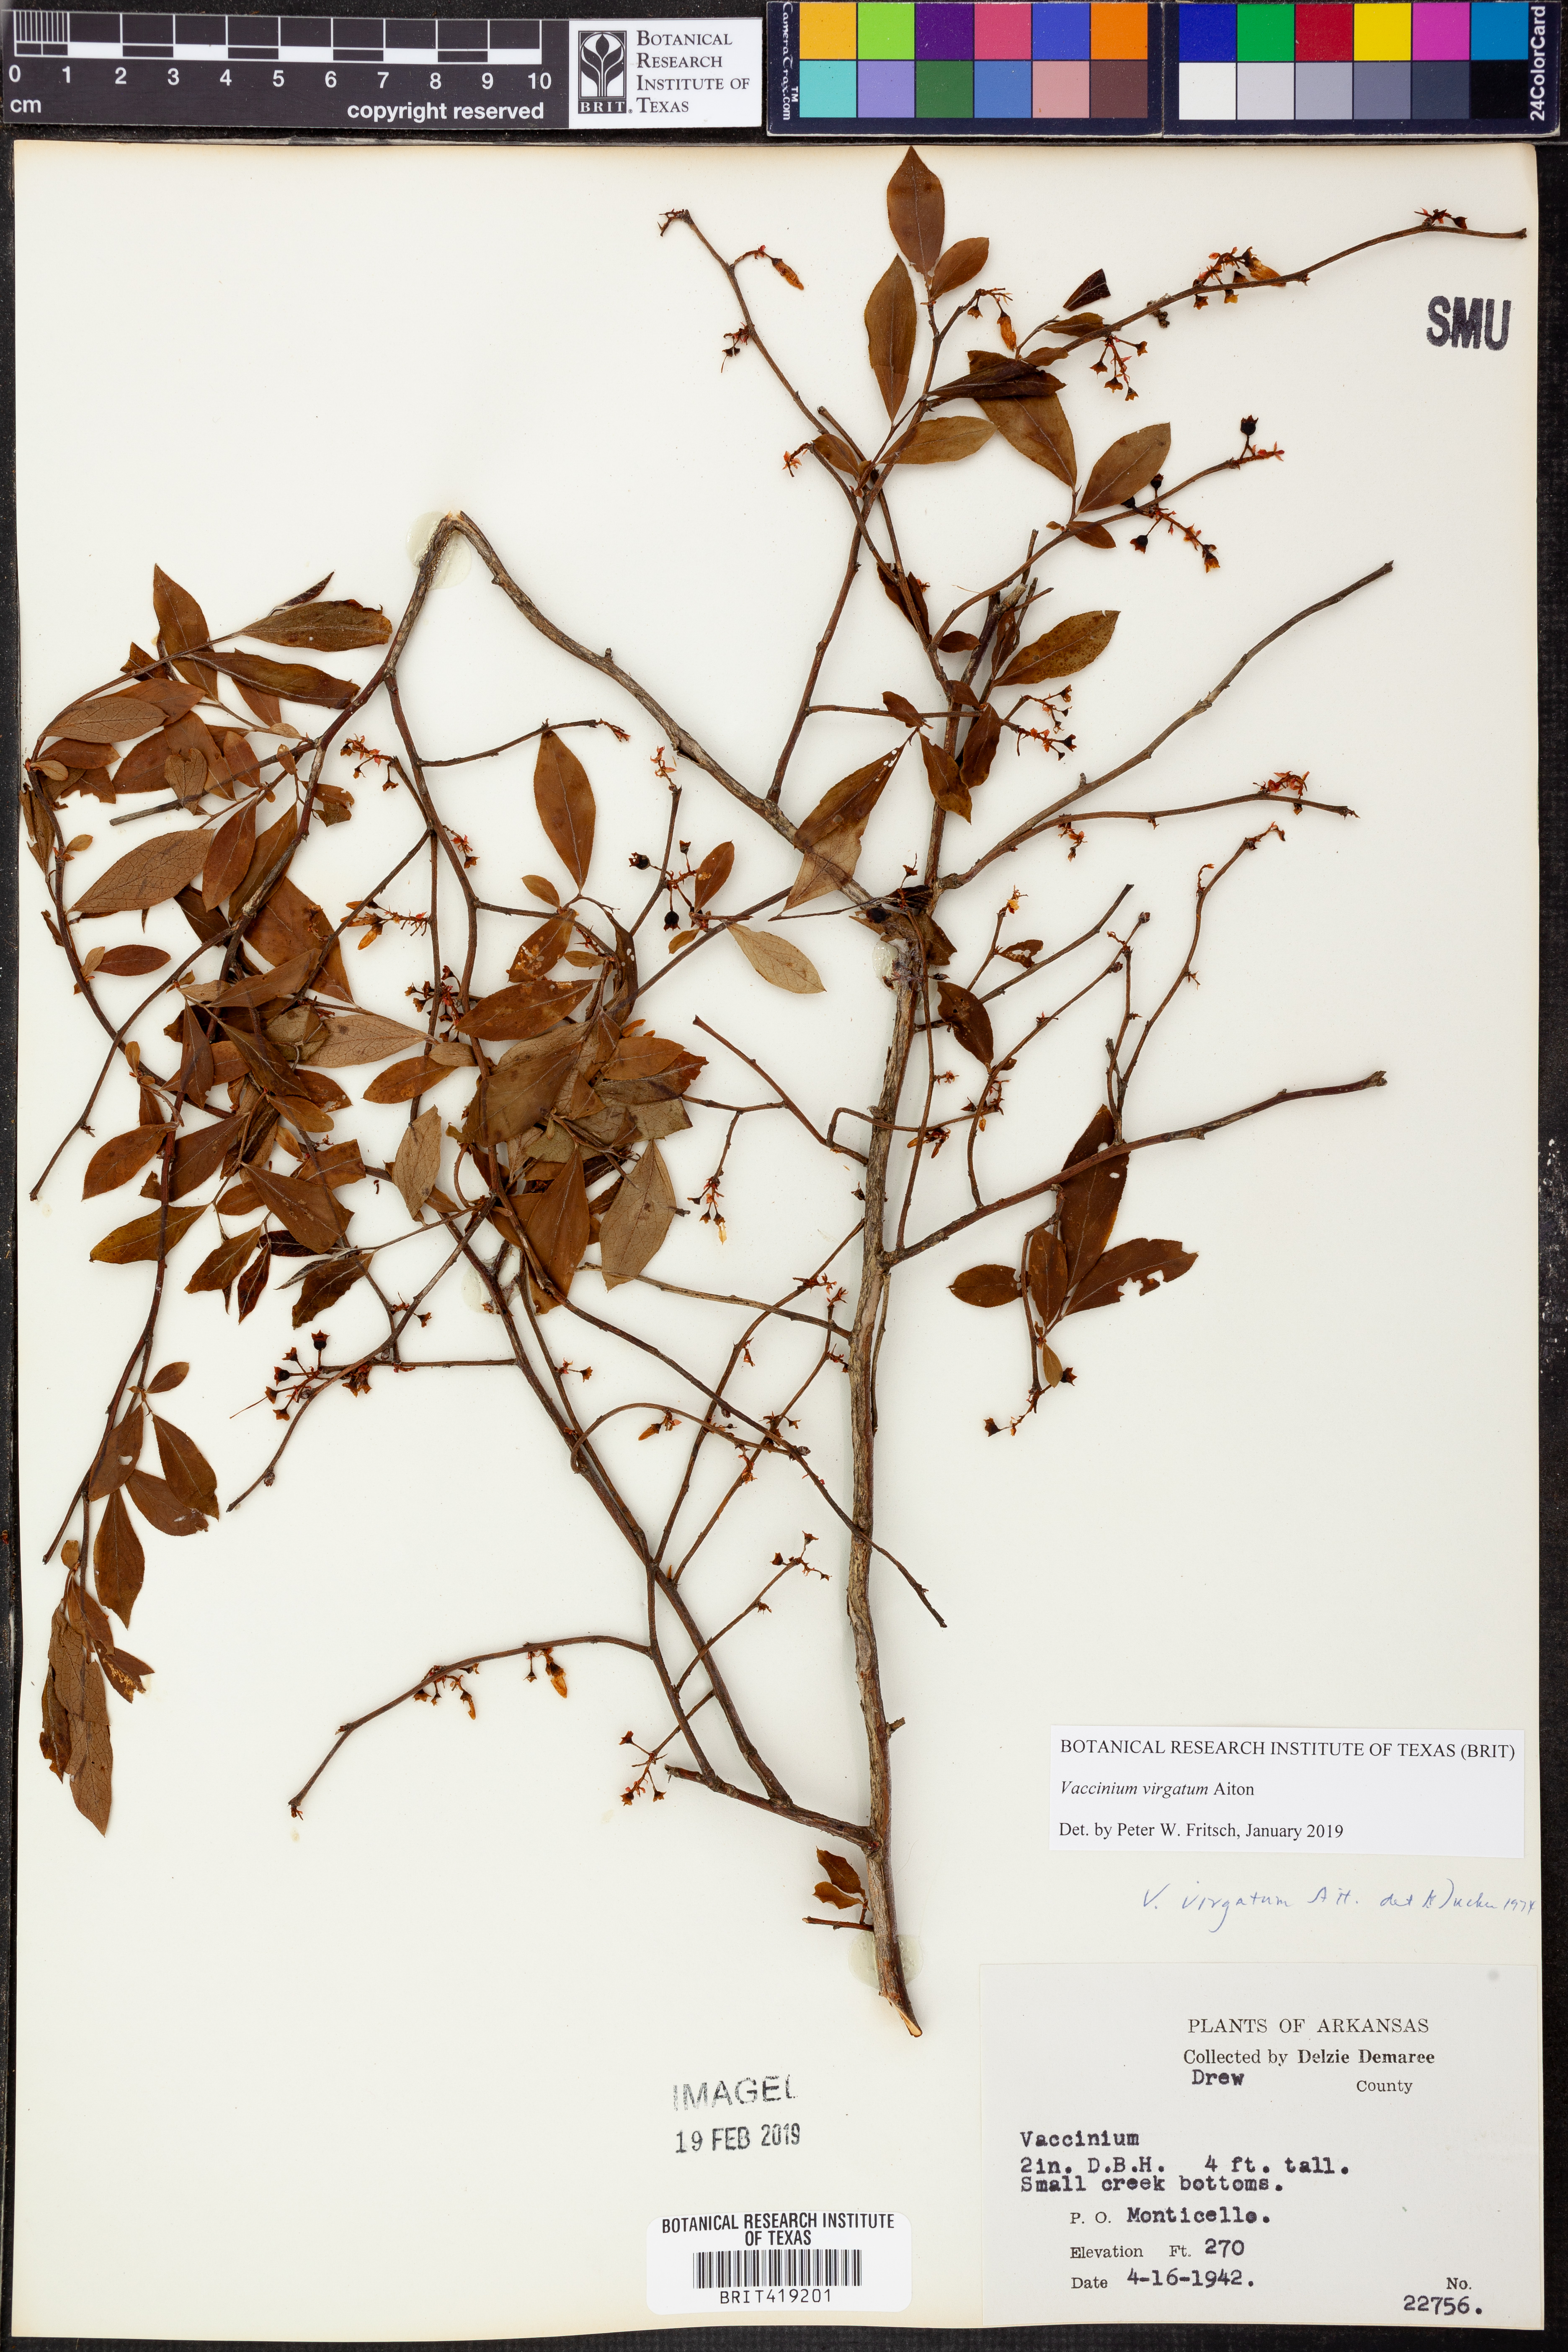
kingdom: Plantae
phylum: Tracheophyta
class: Magnoliopsida
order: Ericales
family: Ericaceae
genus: Vaccinium
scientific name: Vaccinium corymbosum
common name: Blueberry
